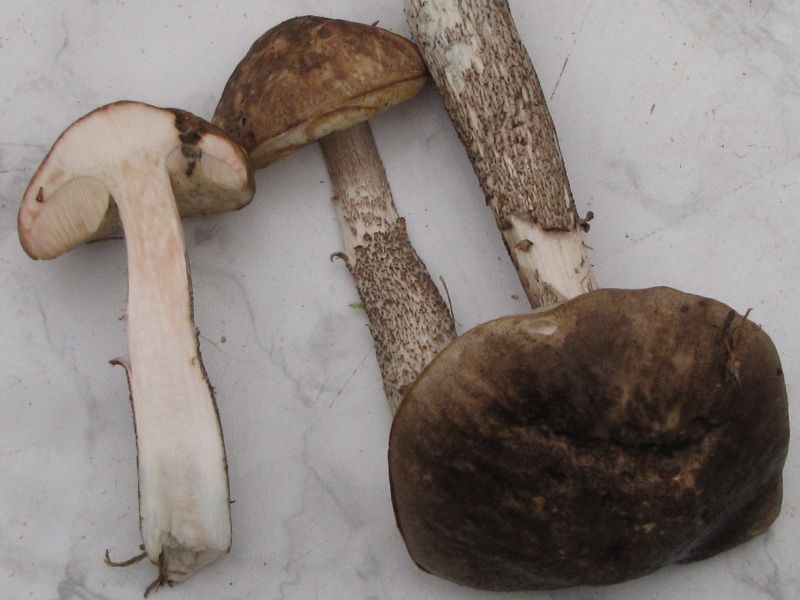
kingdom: Fungi
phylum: Basidiomycota
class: Agaricomycetes
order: Boletales
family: Boletaceae
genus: Leccinum
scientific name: Leccinum variicolor
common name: flammet skælrørhat
